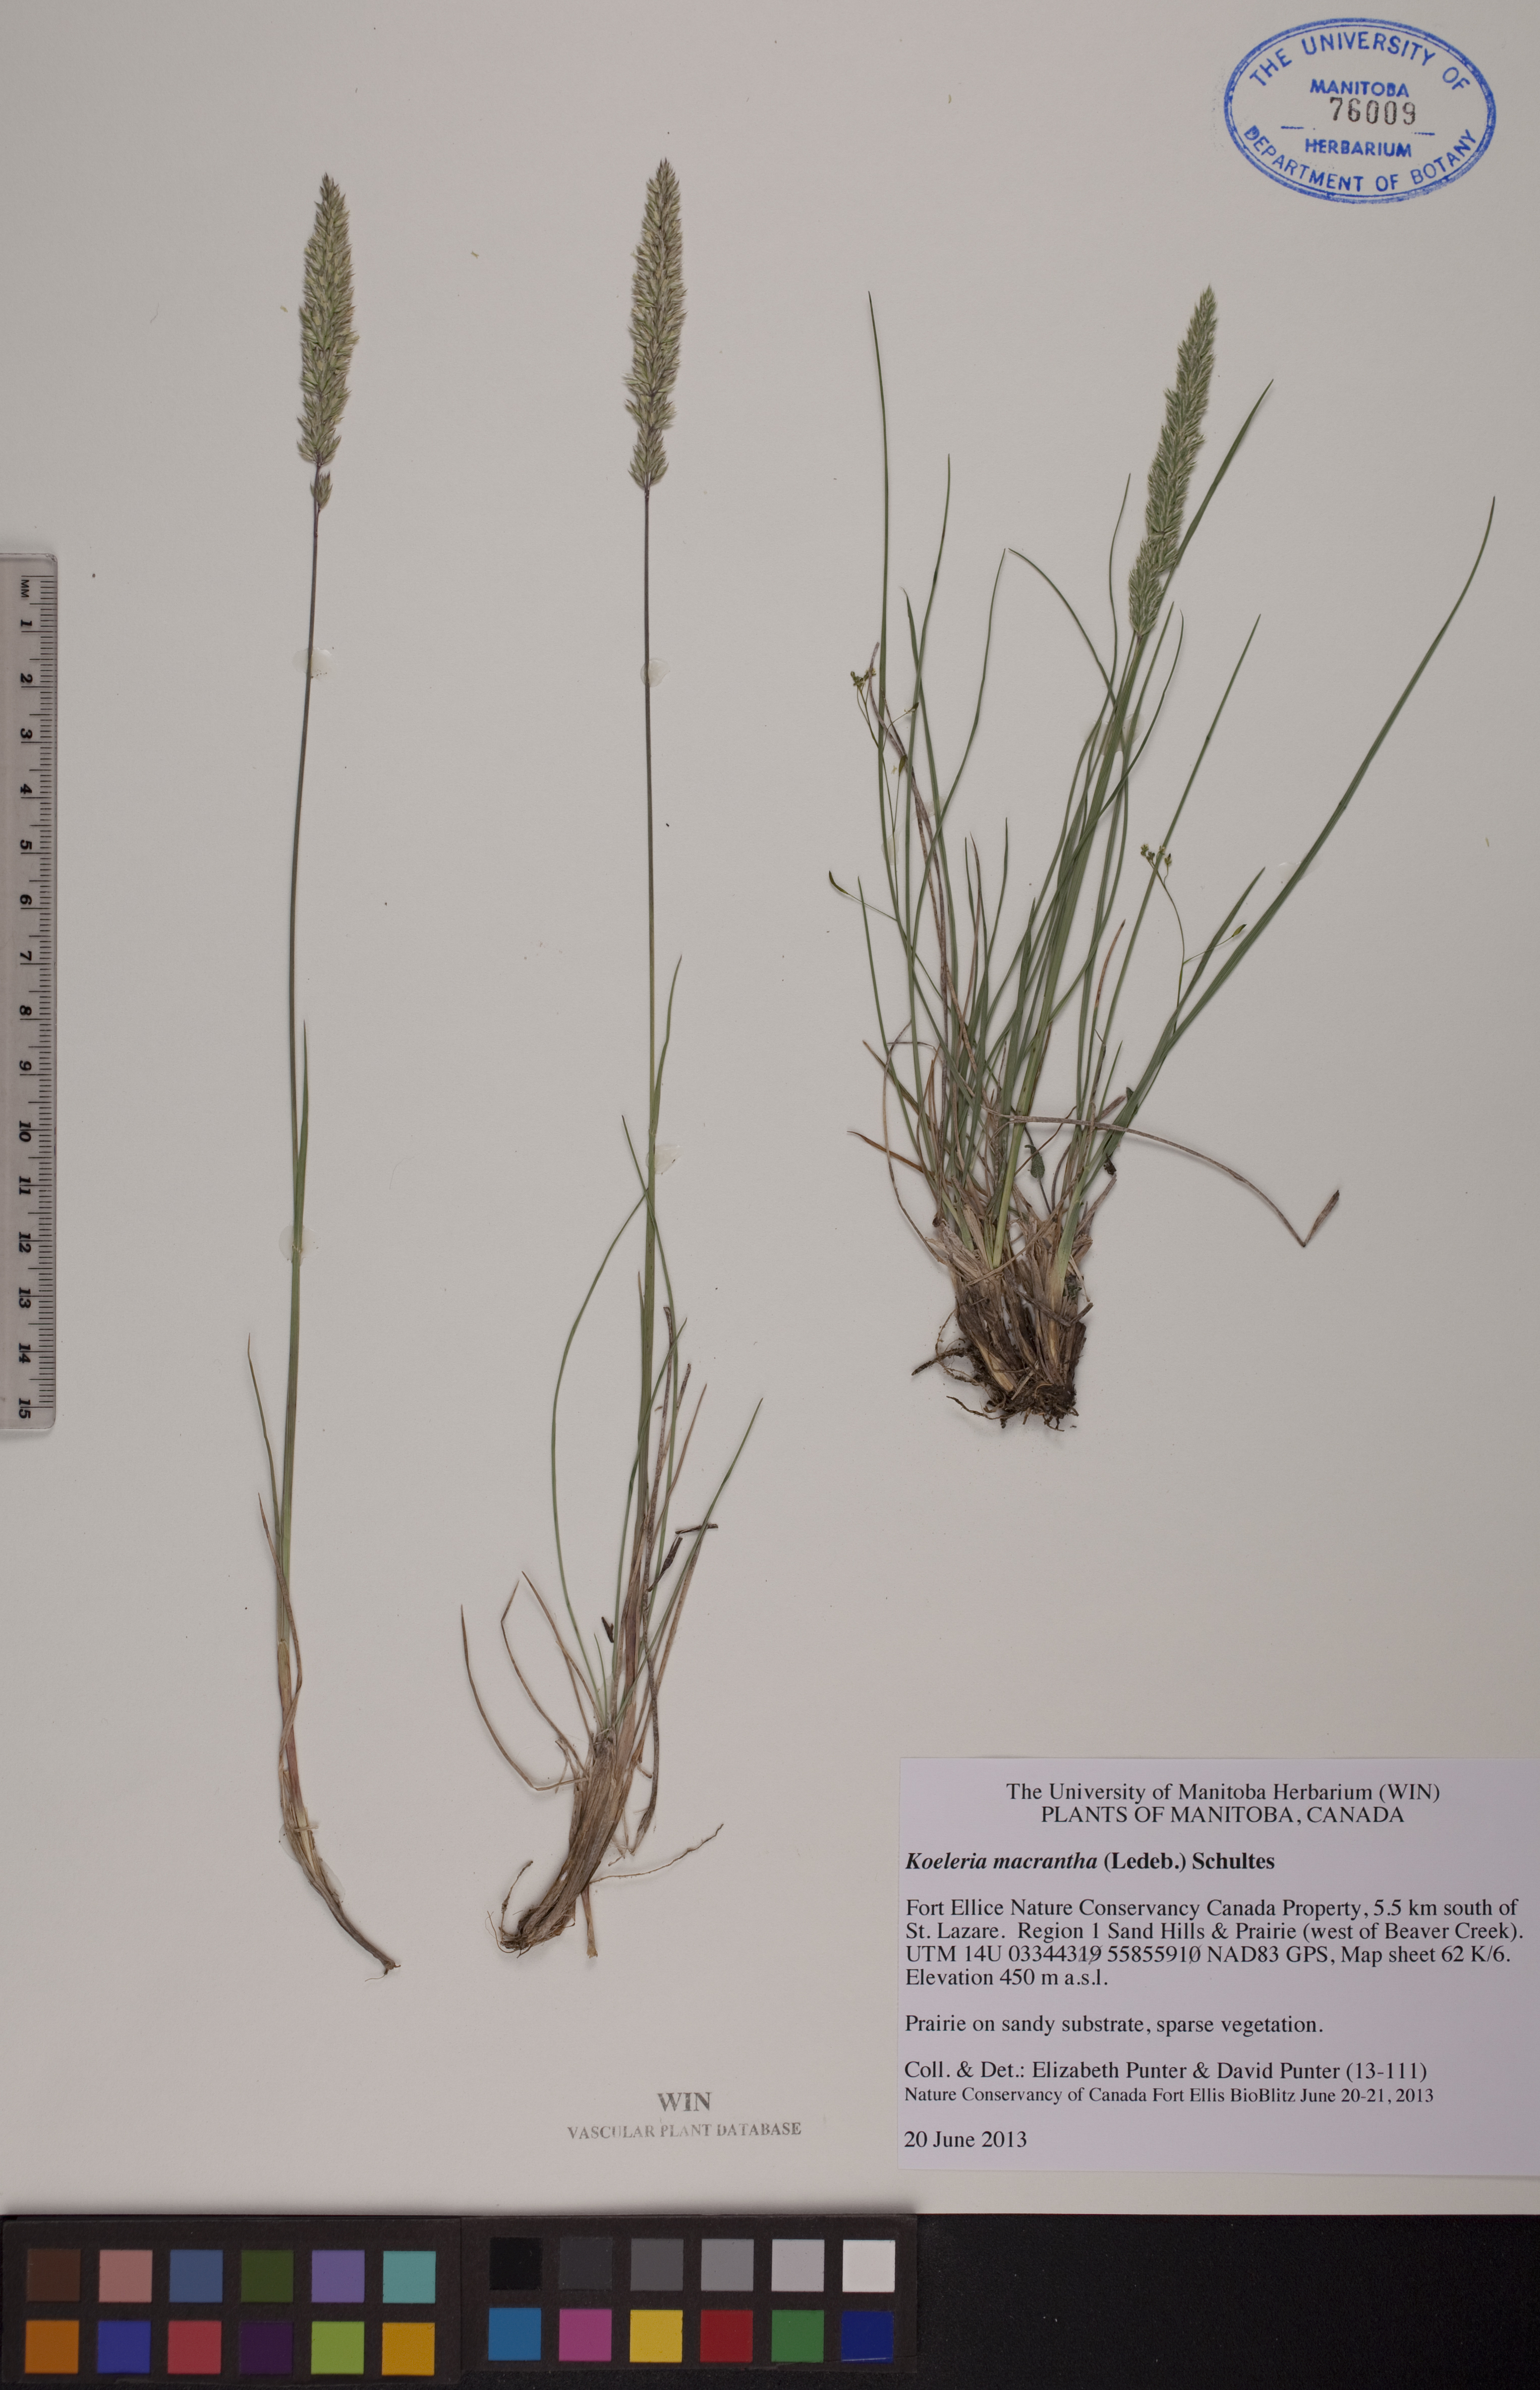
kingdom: Plantae
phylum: Tracheophyta
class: Liliopsida
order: Poales
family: Poaceae
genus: Koeleria
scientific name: Koeleria macrantha
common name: Crested hair-grass
